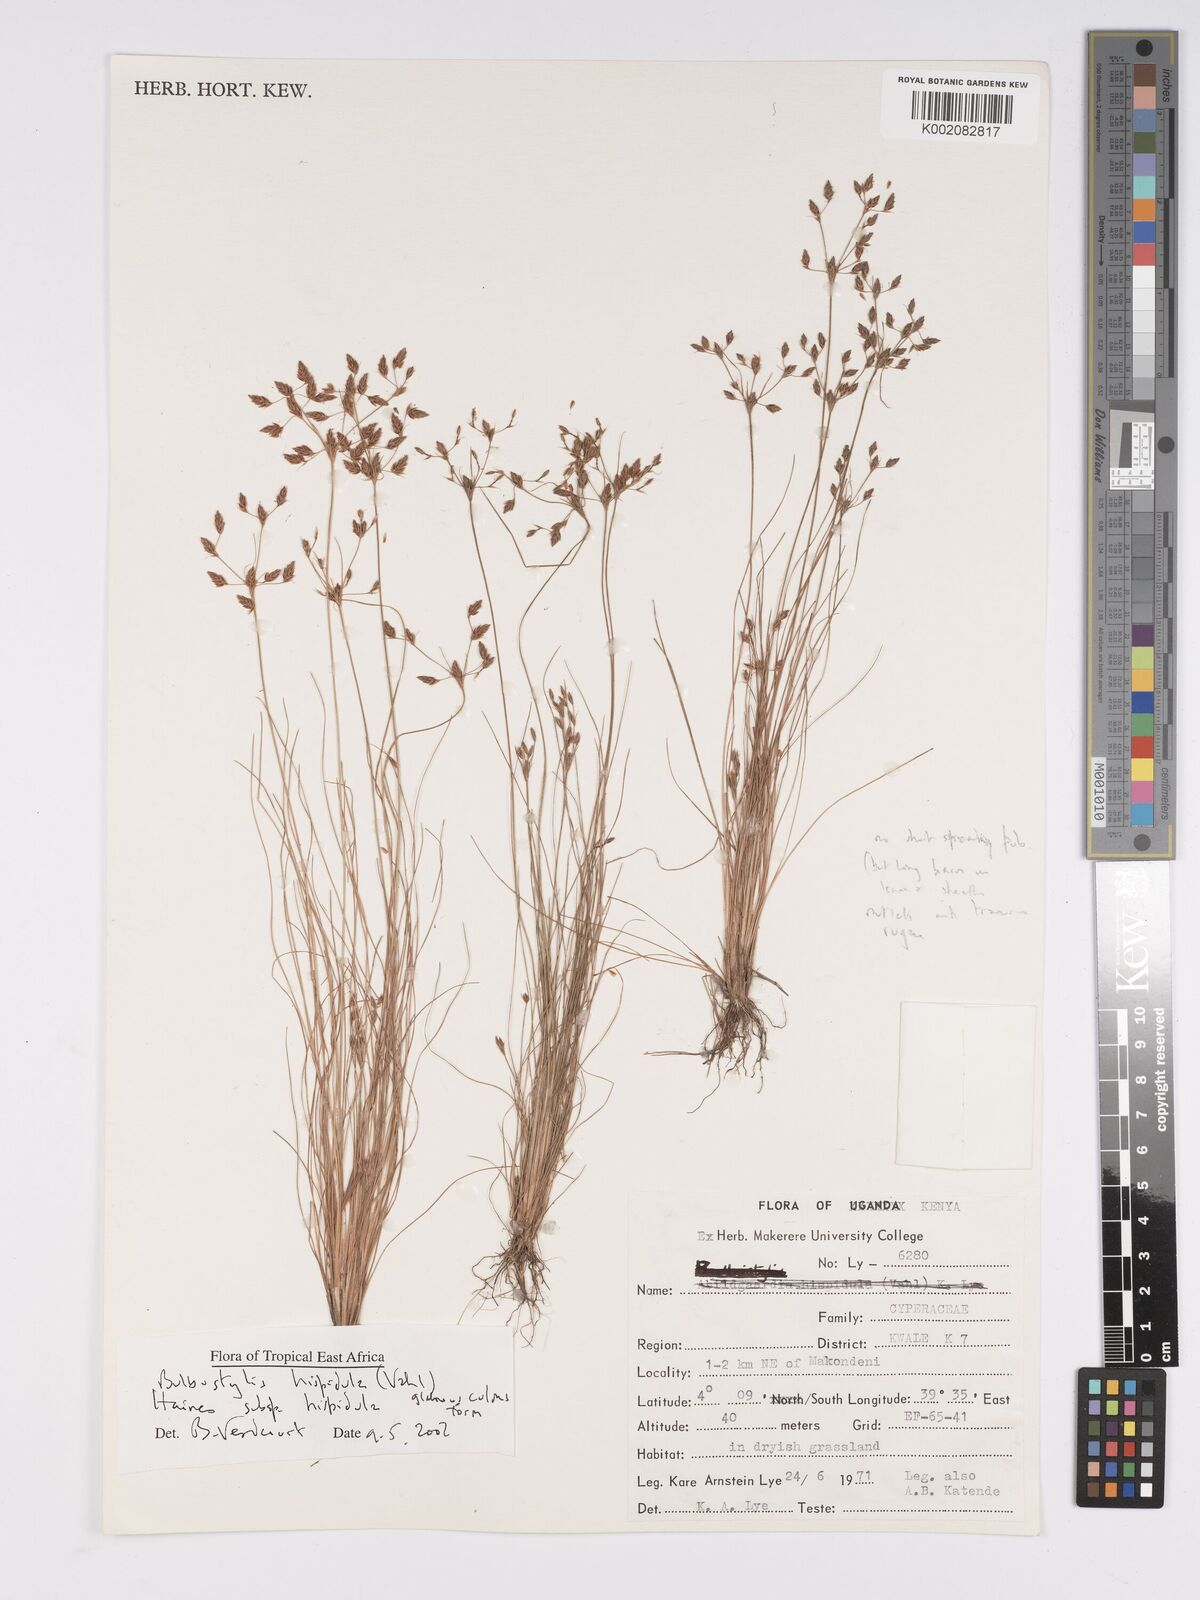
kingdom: Plantae
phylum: Tracheophyta
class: Liliopsida
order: Poales
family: Cyperaceae
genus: Bulbostylis
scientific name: Bulbostylis hispidula
